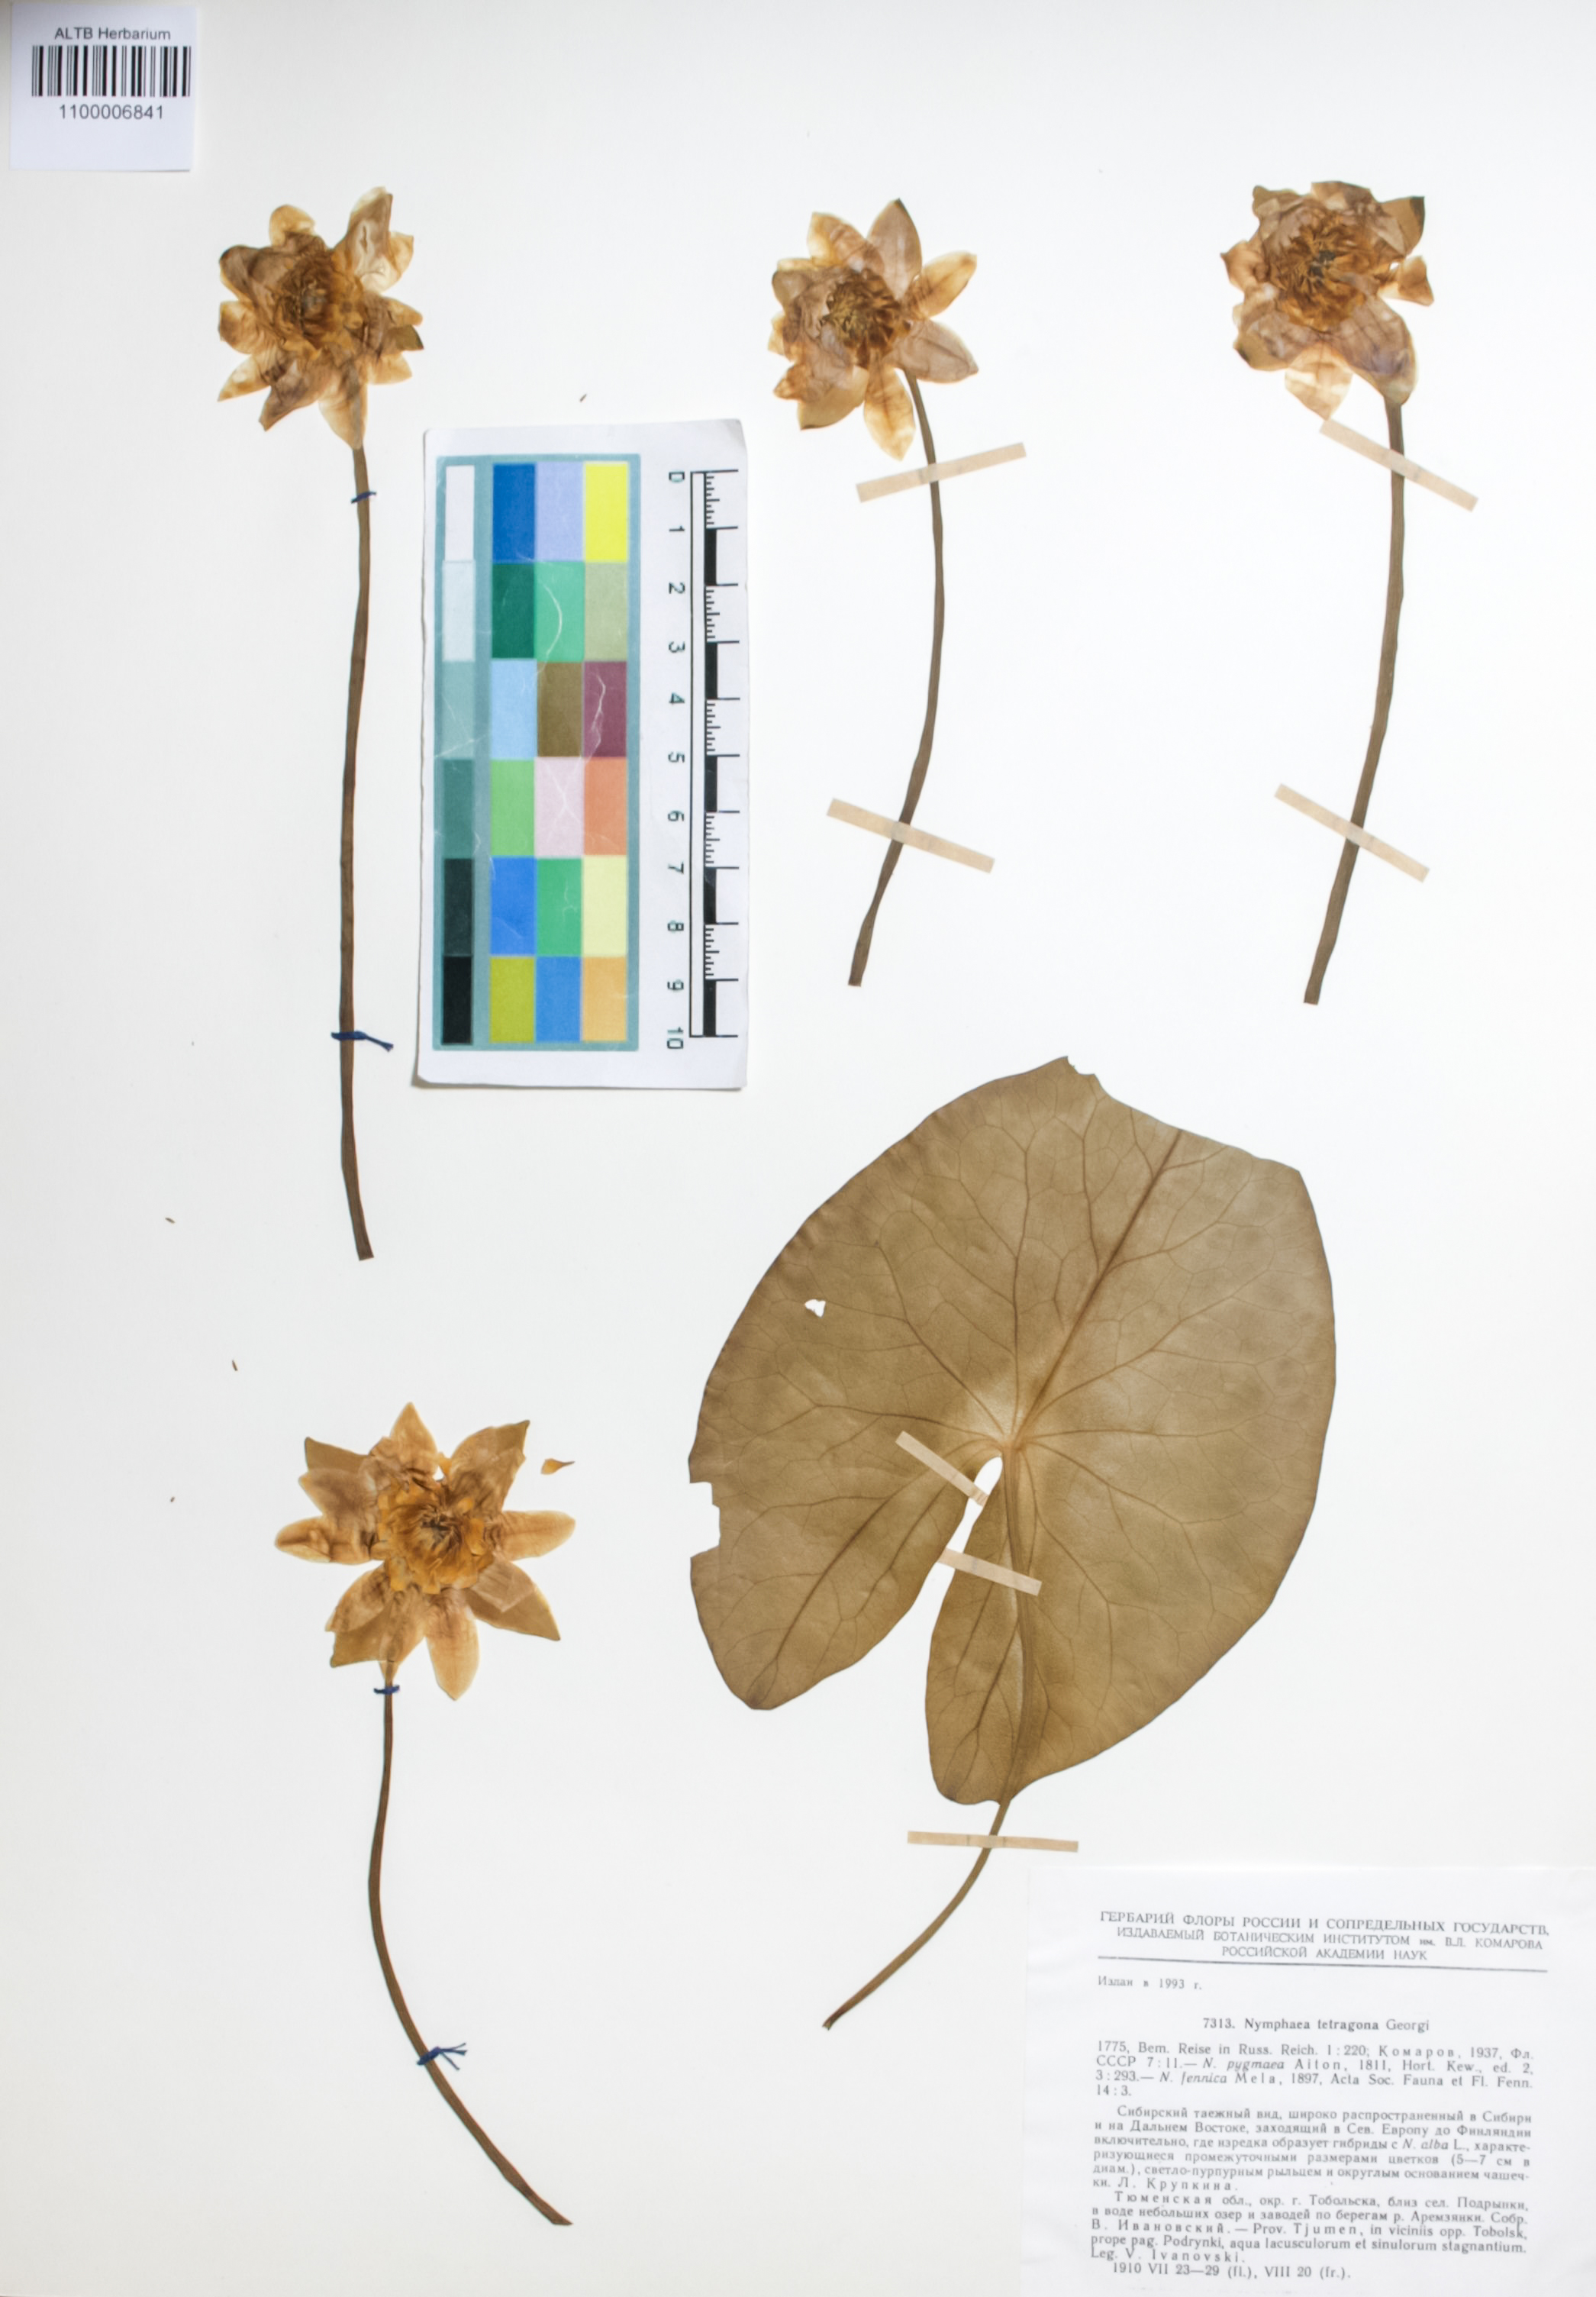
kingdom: Plantae
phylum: Tracheophyta
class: Magnoliopsida
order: Nymphaeales
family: Nymphaeaceae
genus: Nymphaea
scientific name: Nymphaea tetragona
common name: Pygmy water-lily
